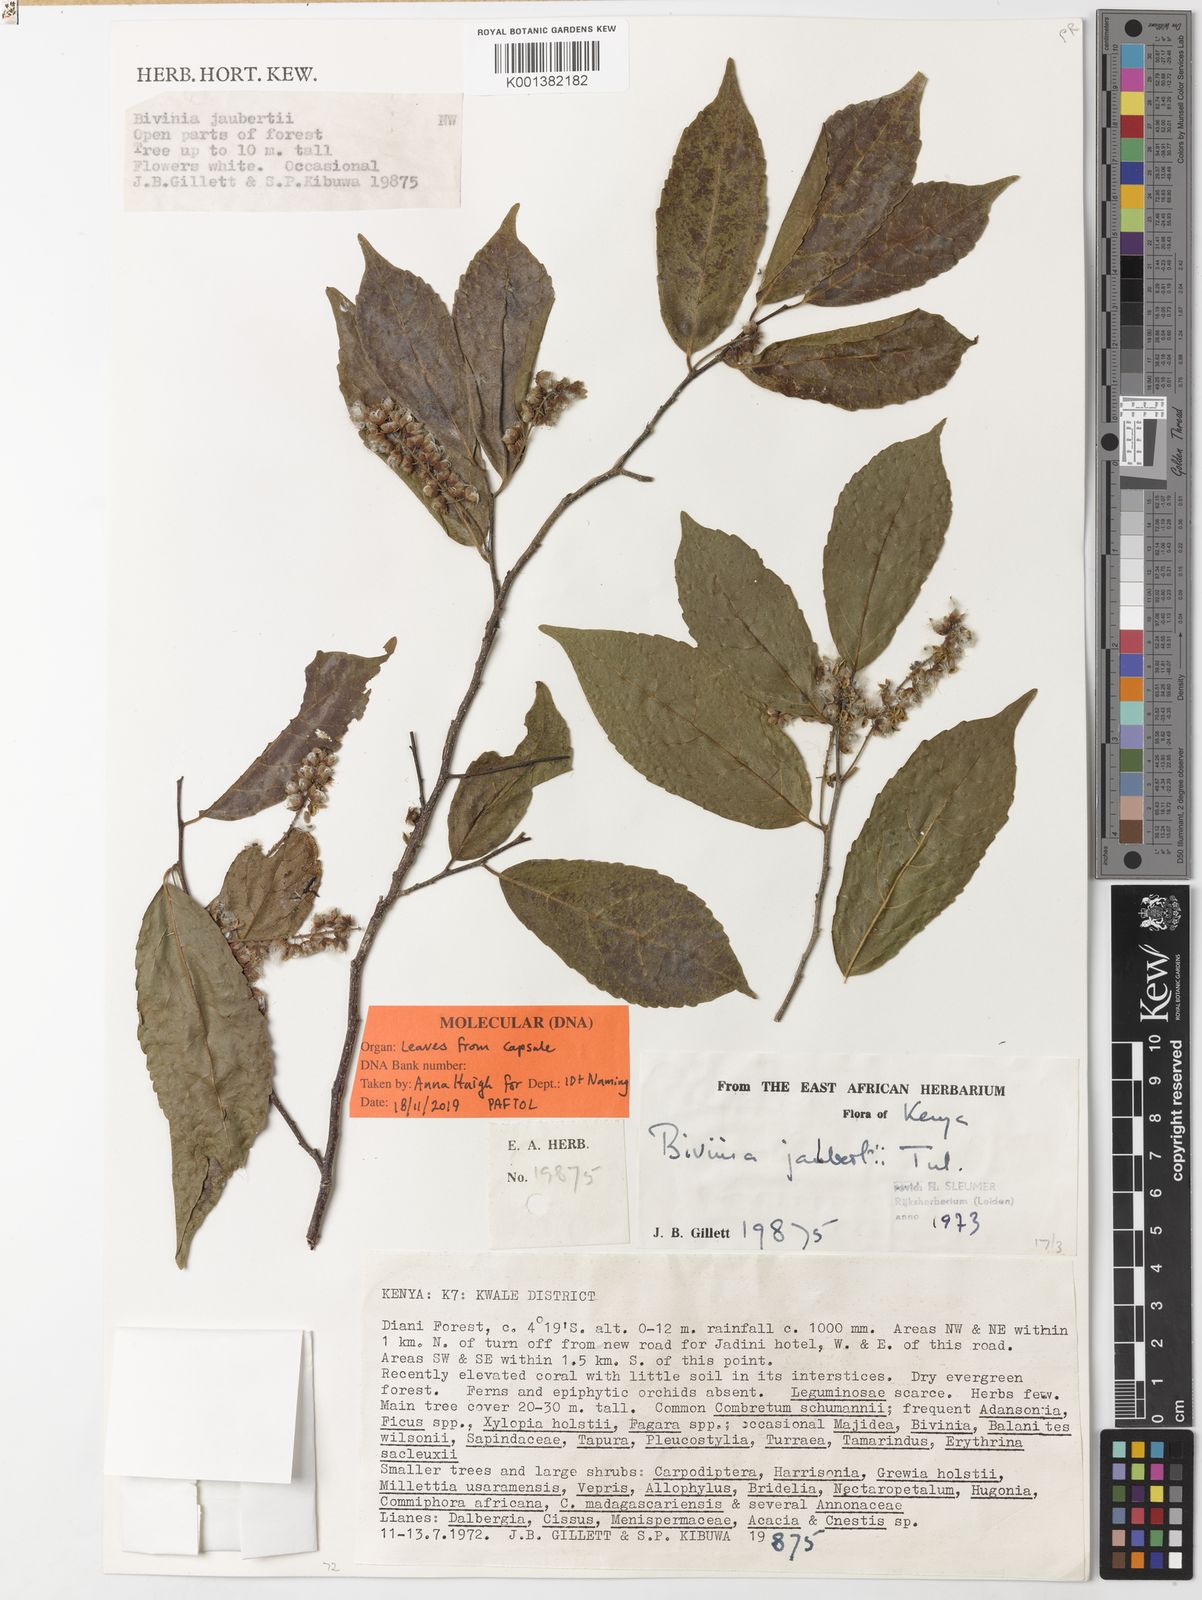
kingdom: Plantae
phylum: Tracheophyta
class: Magnoliopsida
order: Malpighiales
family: Salicaceae
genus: Bivinia
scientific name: Bivinia jalbertii
